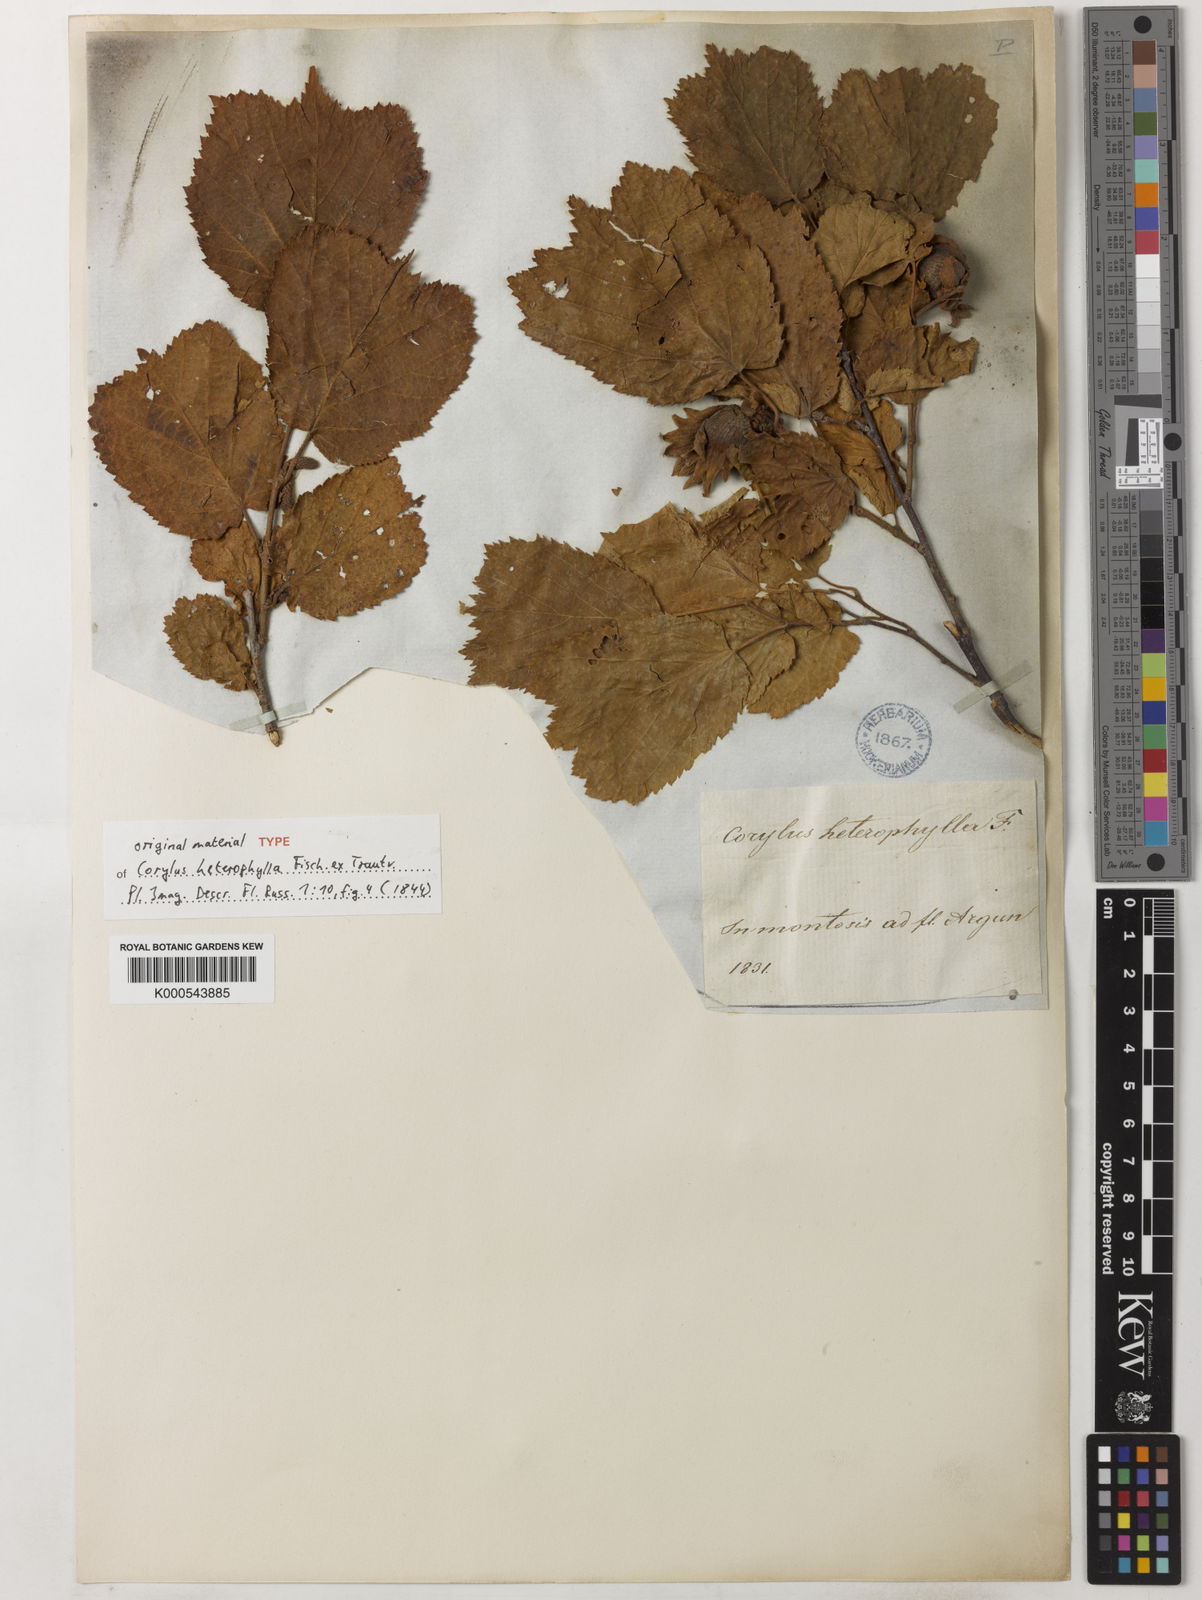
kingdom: Plantae
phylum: Tracheophyta
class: Magnoliopsida
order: Fagales
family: Betulaceae
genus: Corylus
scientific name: Corylus heterophylla
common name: Siberian hazelnut
